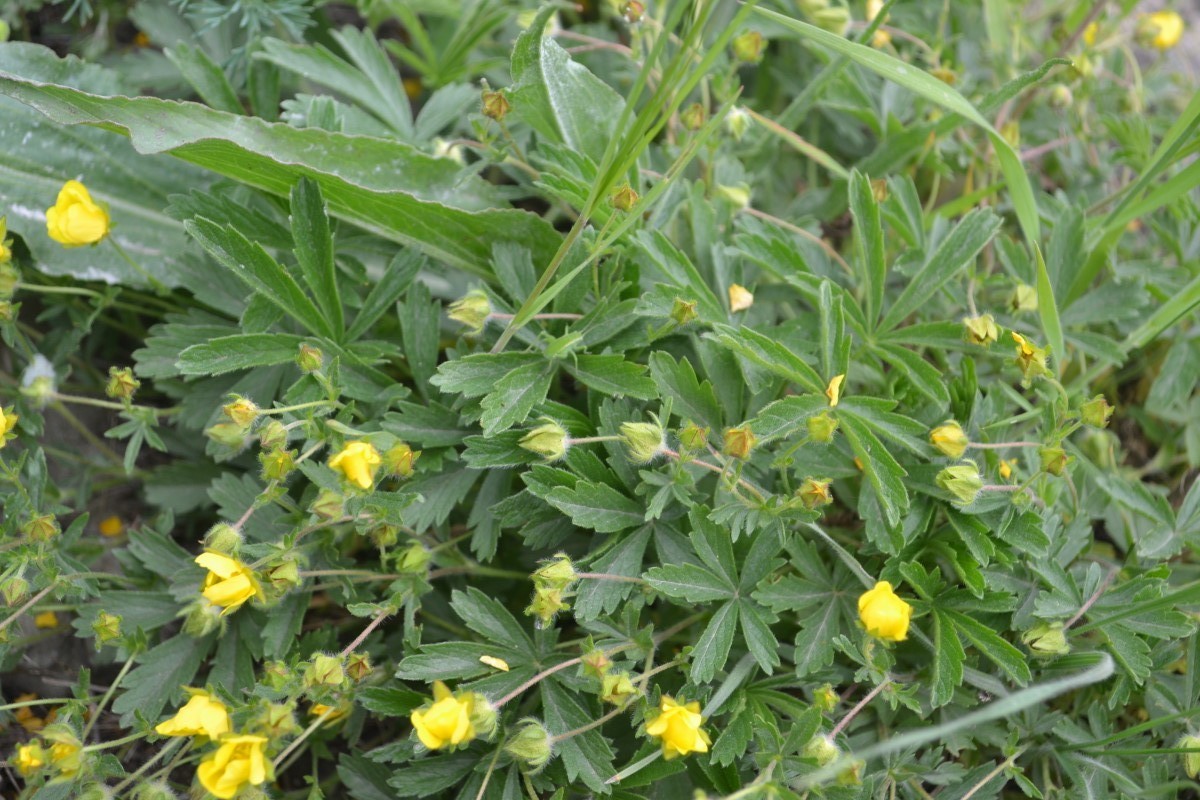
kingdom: Plantae
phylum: Tracheophyta
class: Magnoliopsida
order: Rosales
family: Rosaceae
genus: Potentilla
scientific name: Potentilla sphenophylla
